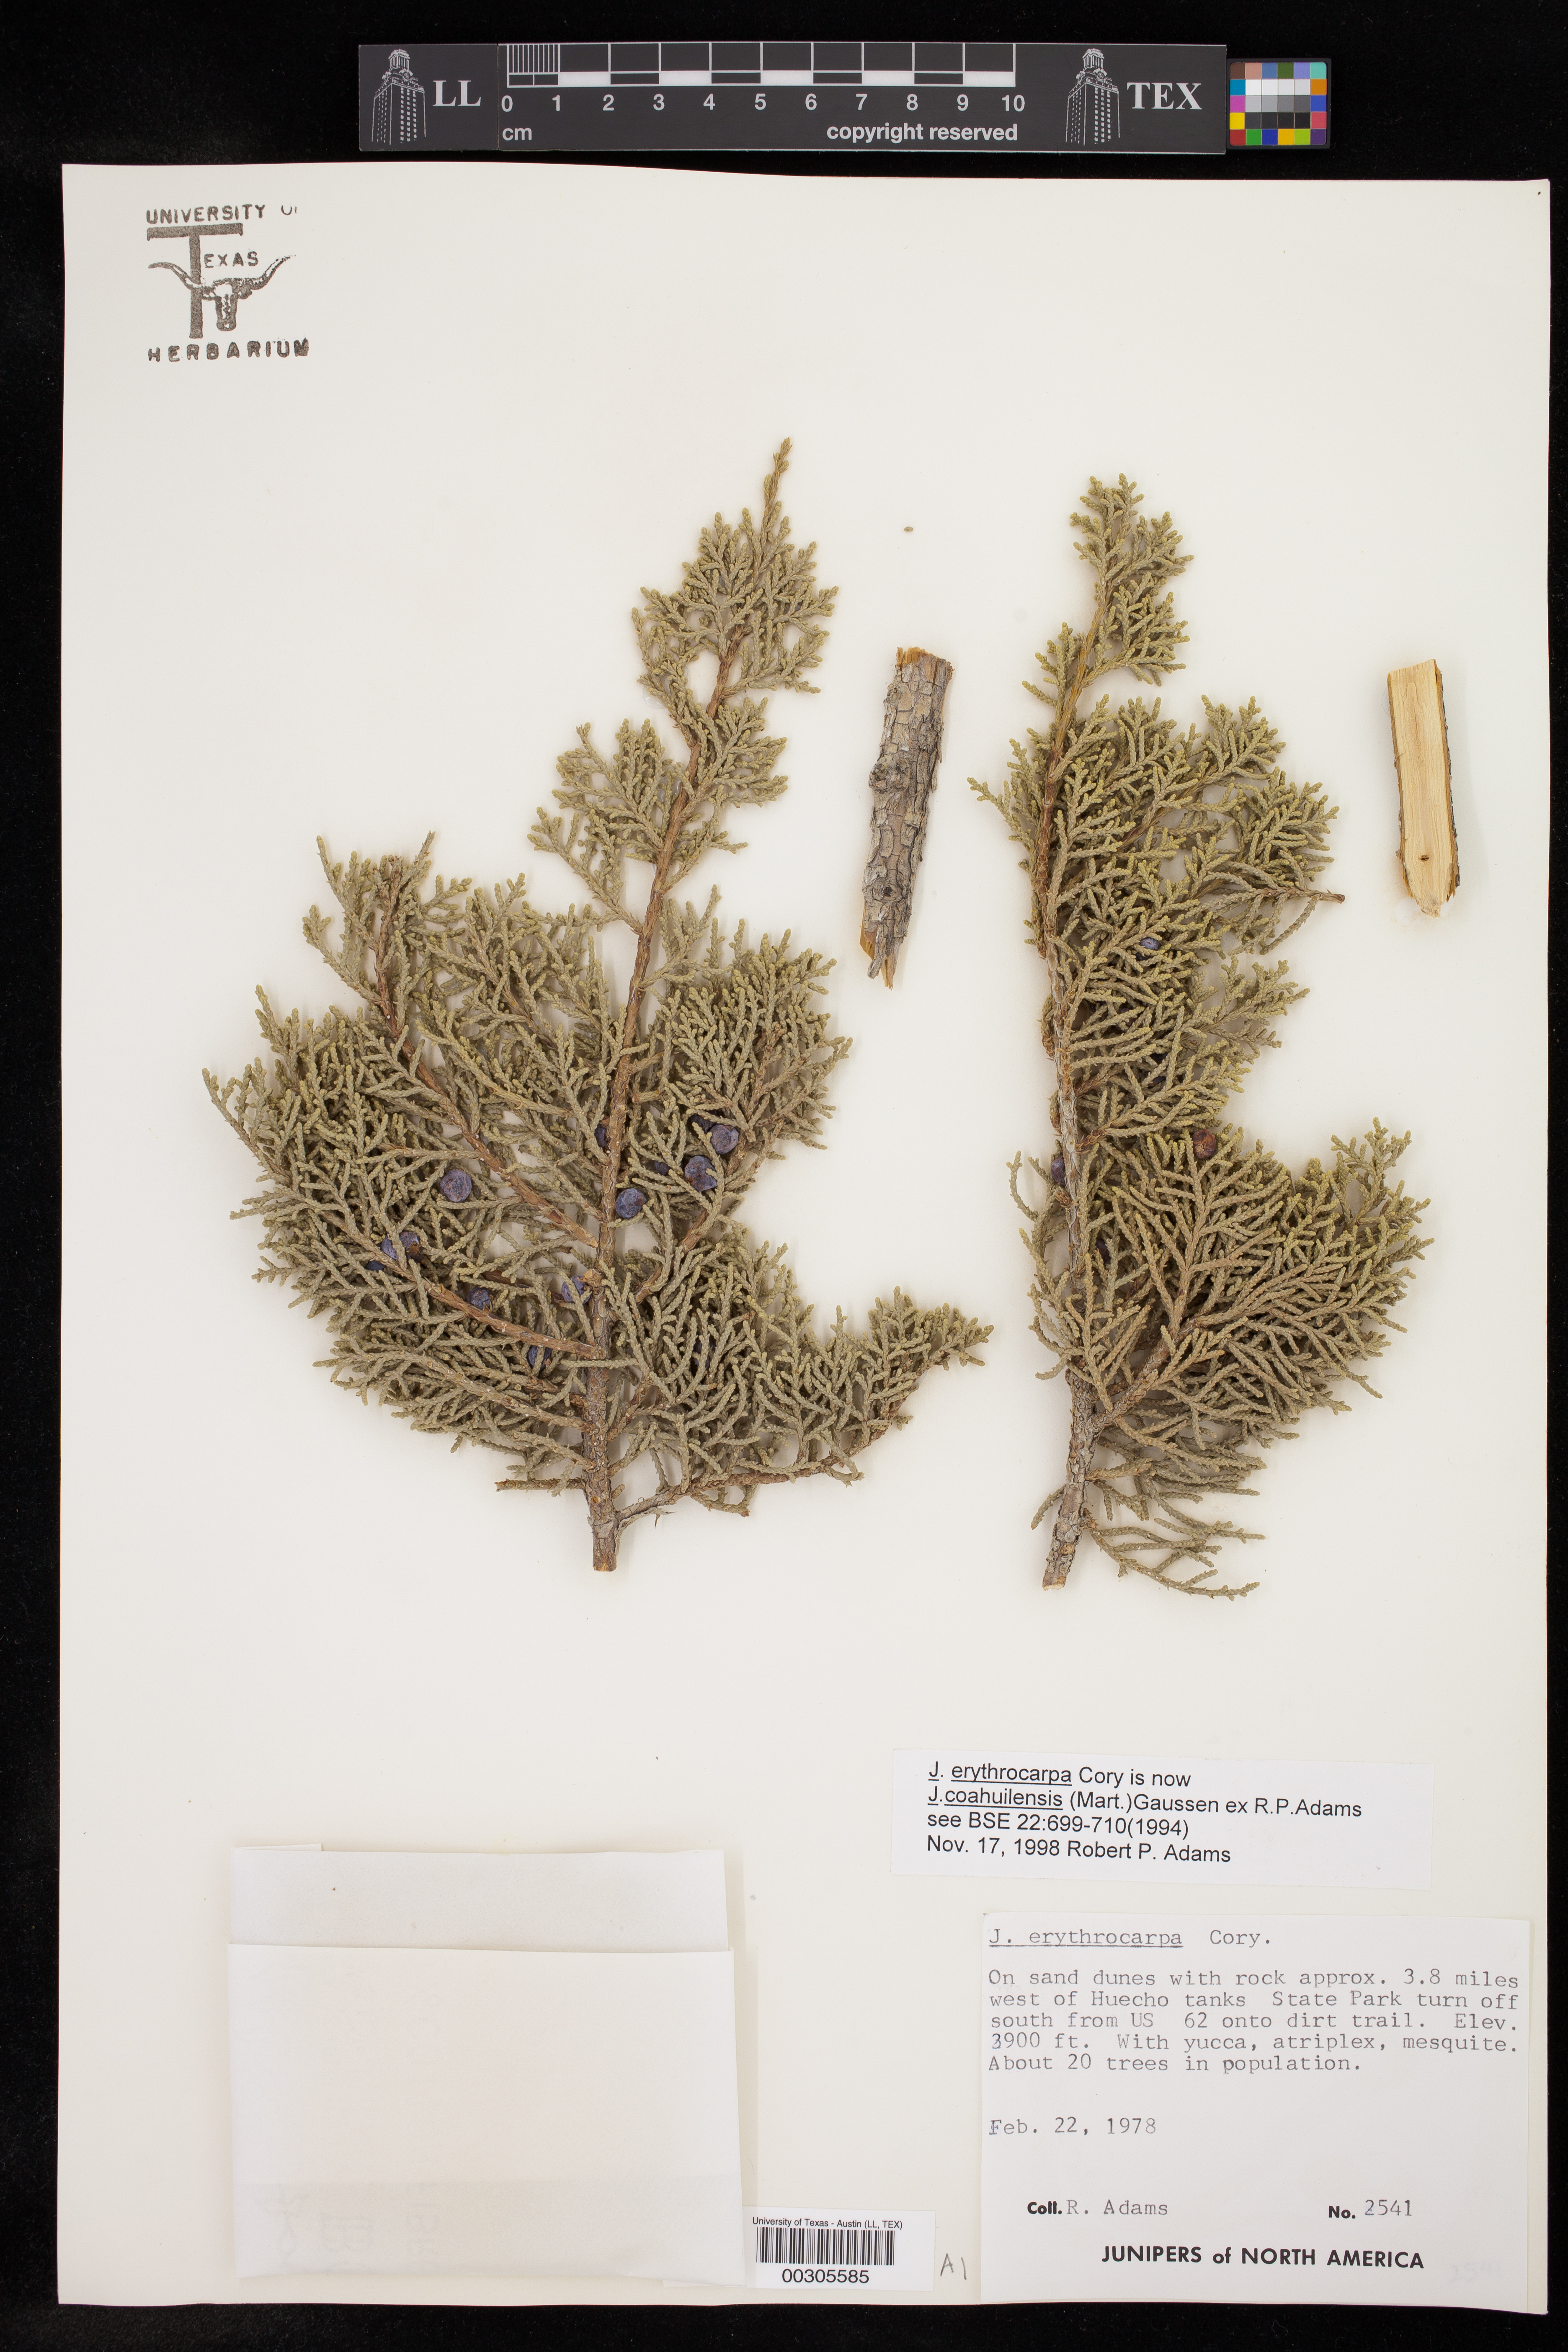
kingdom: Plantae
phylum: Tracheophyta
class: Pinopsida
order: Pinales
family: Cupressaceae
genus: Juniperus
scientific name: Juniperus coahuilensis
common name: Roseberry
